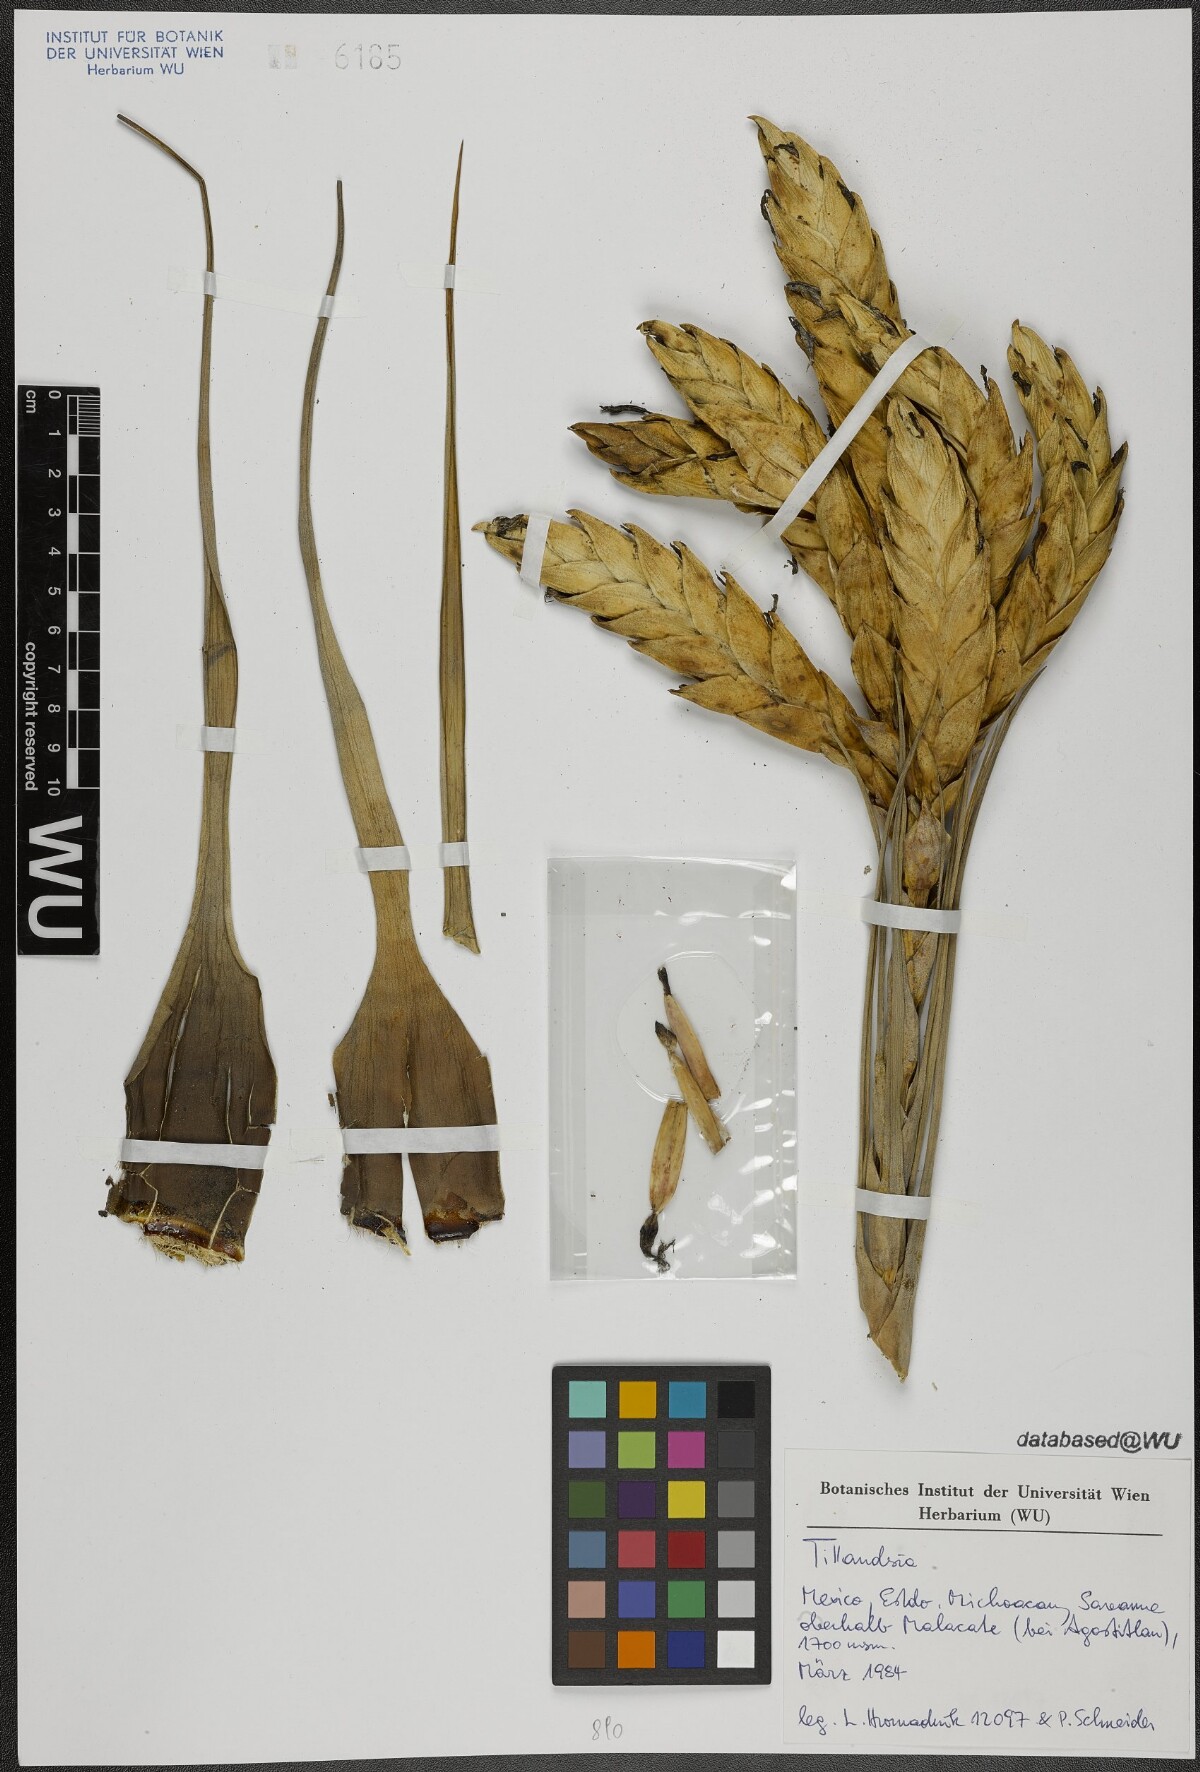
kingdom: Plantae
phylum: Tracheophyta
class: Liliopsida
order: Poales
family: Bromeliaceae
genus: Tillandsia
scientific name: Tillandsia fasciculata
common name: Giant airplant
